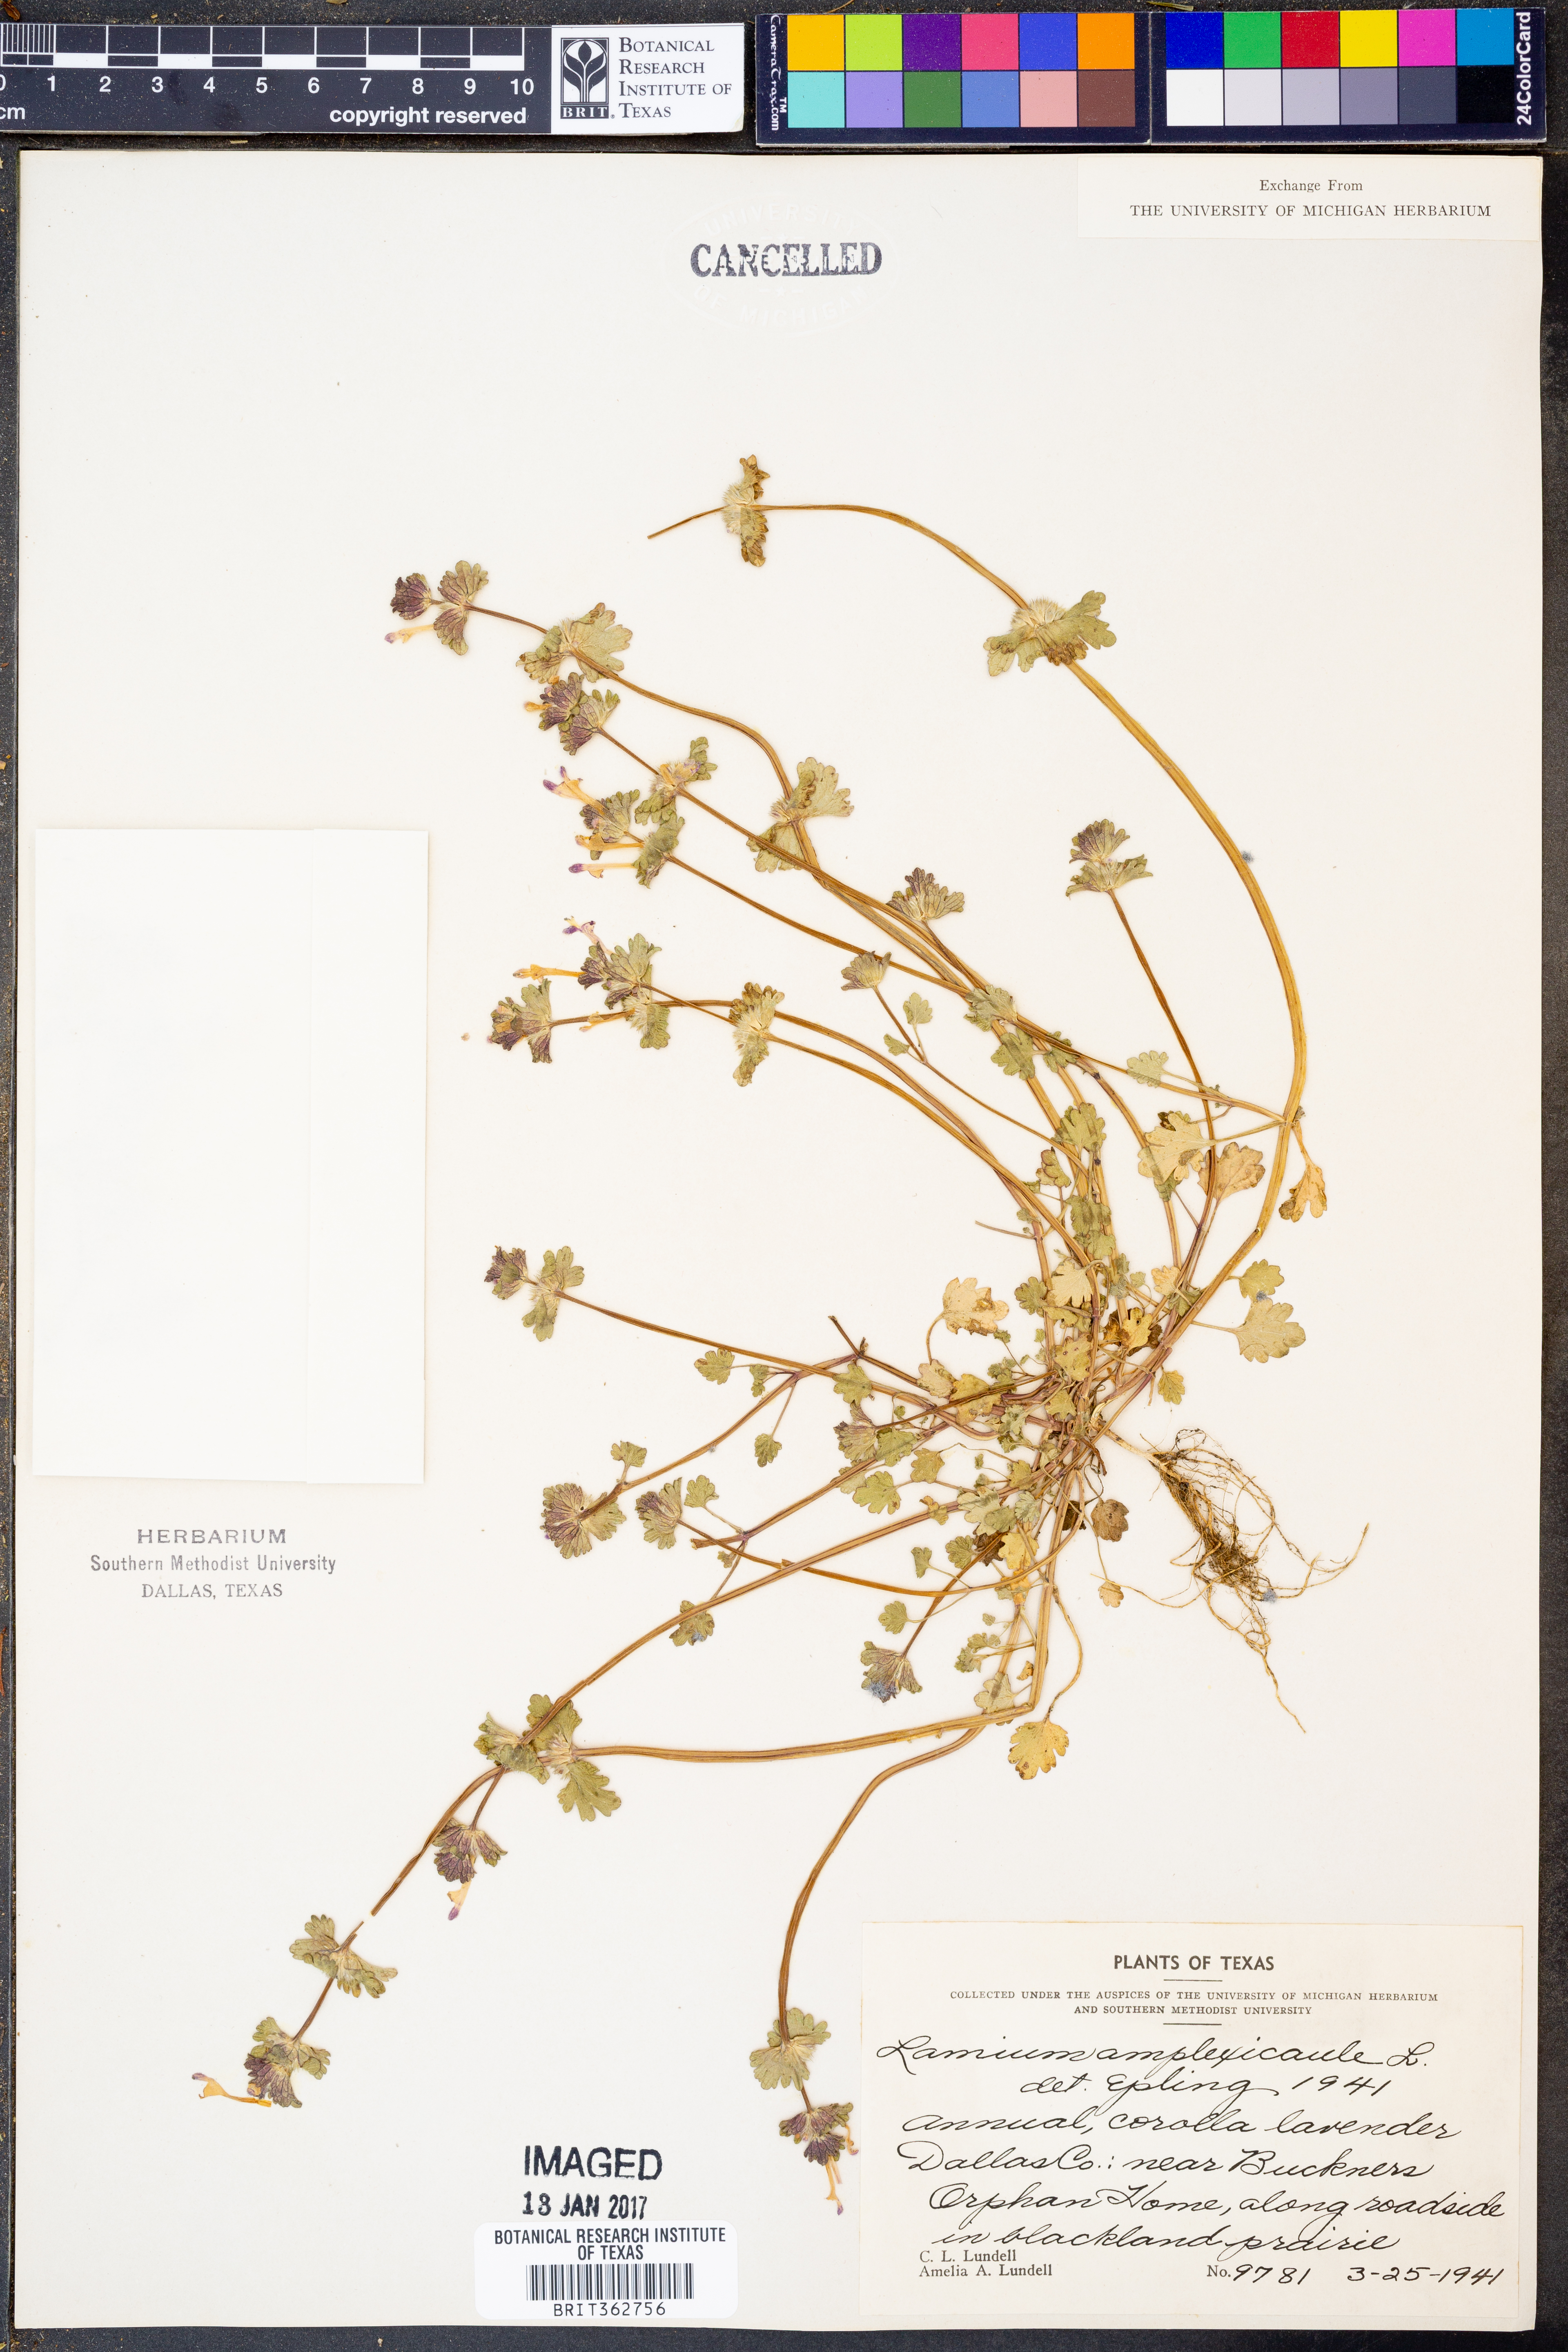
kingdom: Plantae
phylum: Tracheophyta
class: Magnoliopsida
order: Lamiales
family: Lamiaceae
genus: Lamium
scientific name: Lamium amplexicaule
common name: Henbit dead-nettle
